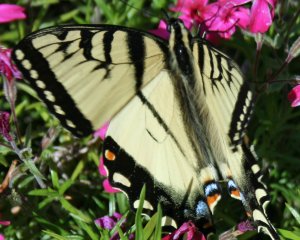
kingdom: Animalia
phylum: Arthropoda
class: Insecta
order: Lepidoptera
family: Papilionidae
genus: Pterourus
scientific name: Pterourus glaucus
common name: Eastern Tiger Swallowtail
